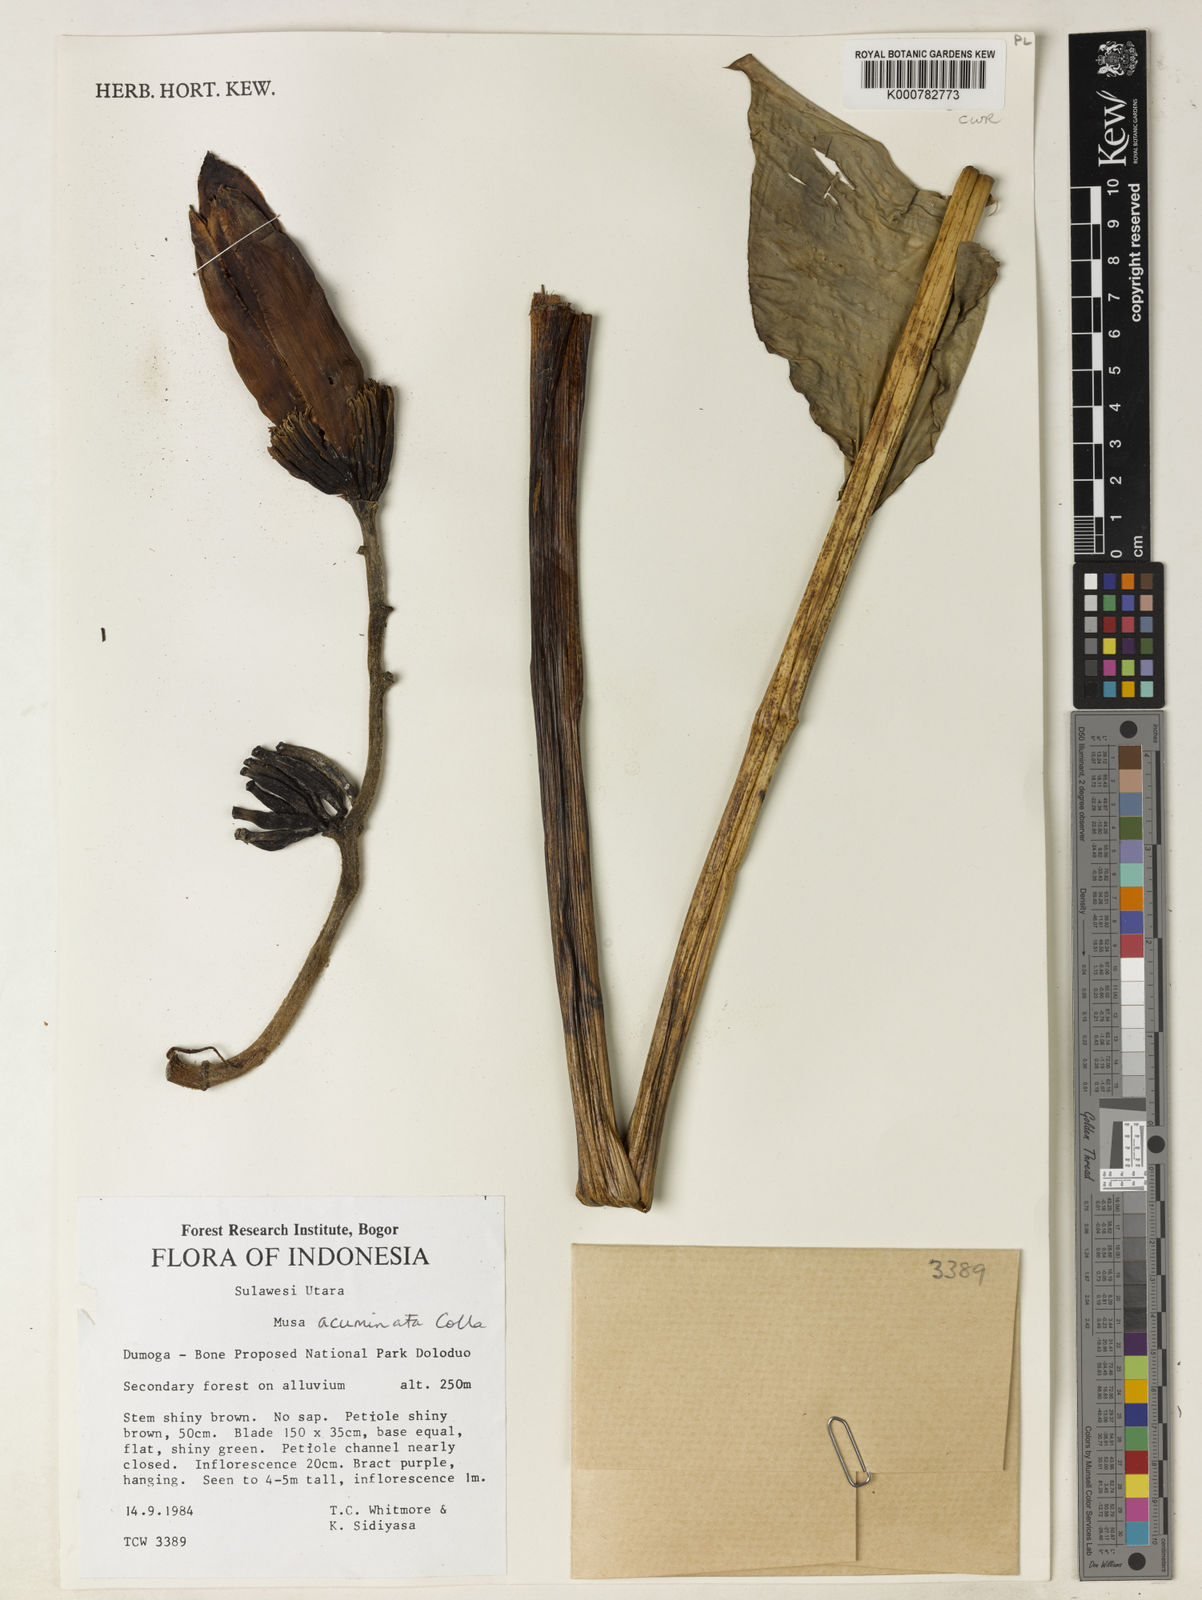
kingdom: Plantae
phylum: Tracheophyta
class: Liliopsida
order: Zingiberales
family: Musaceae
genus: Musa
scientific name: Musa acuminata
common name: Edible banana
